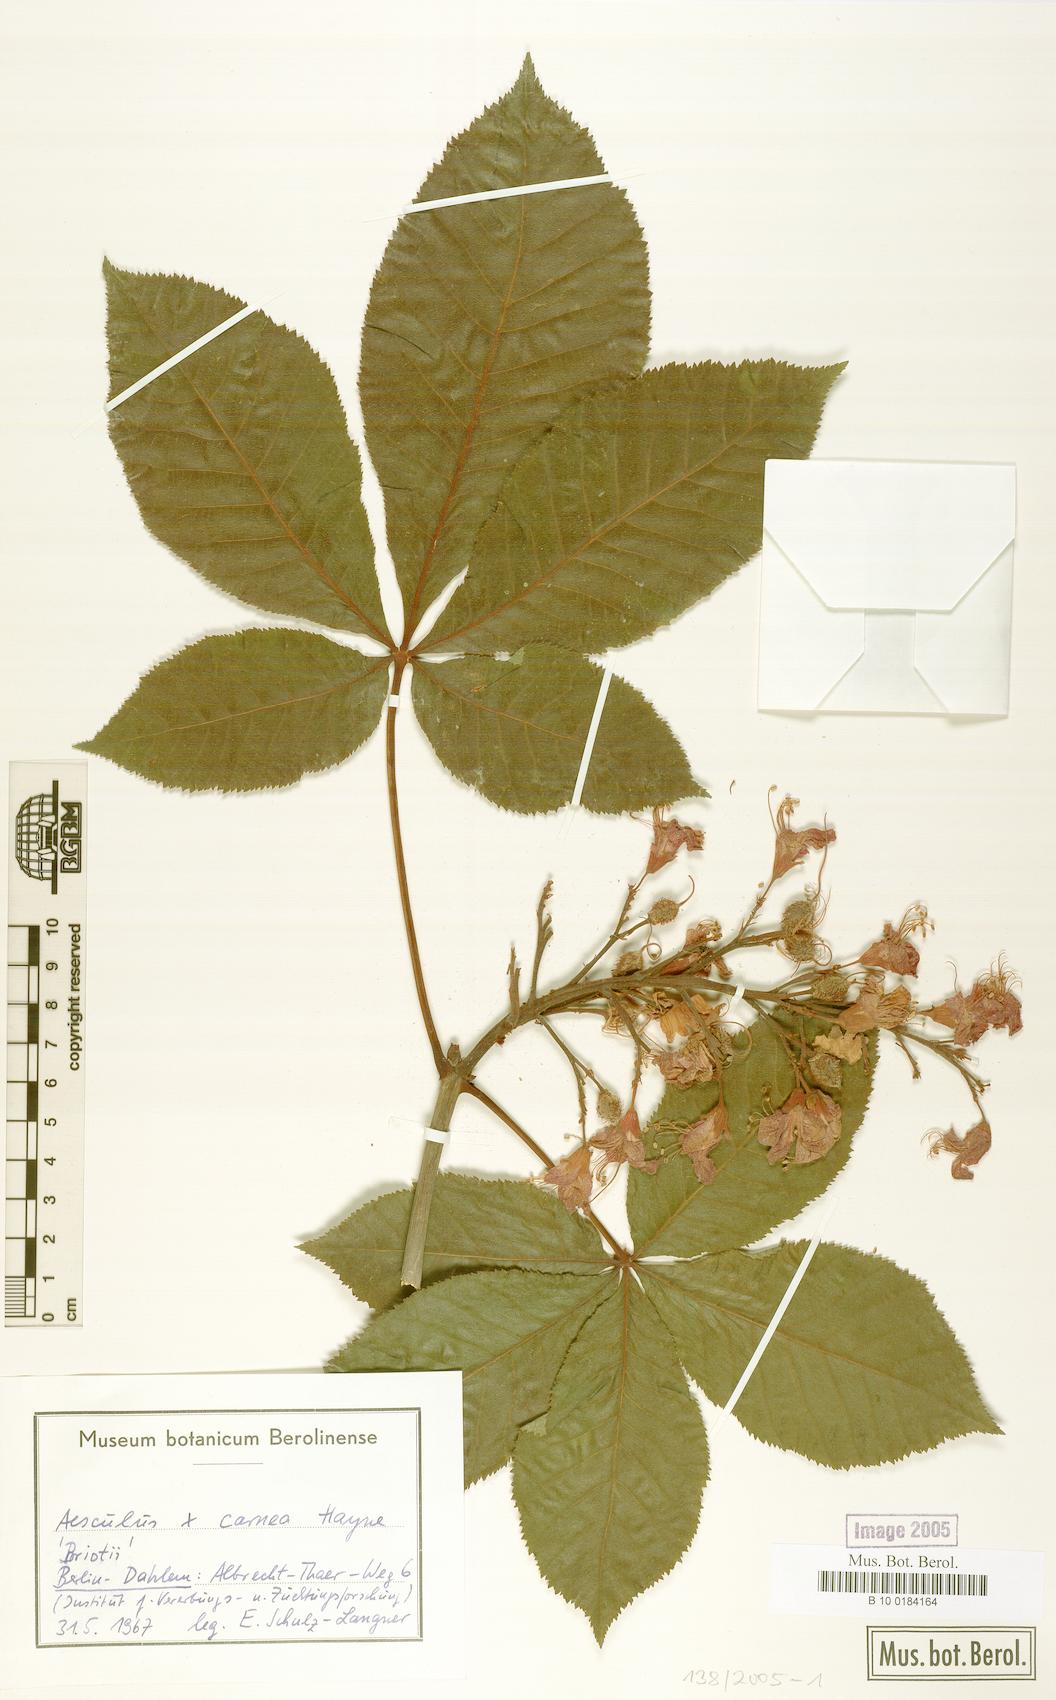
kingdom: Plantae
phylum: Tracheophyta
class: Magnoliopsida
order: Sapindales
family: Sapindaceae
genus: Aesculus
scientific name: Aesculus carnea
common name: Red horse-chestnut
